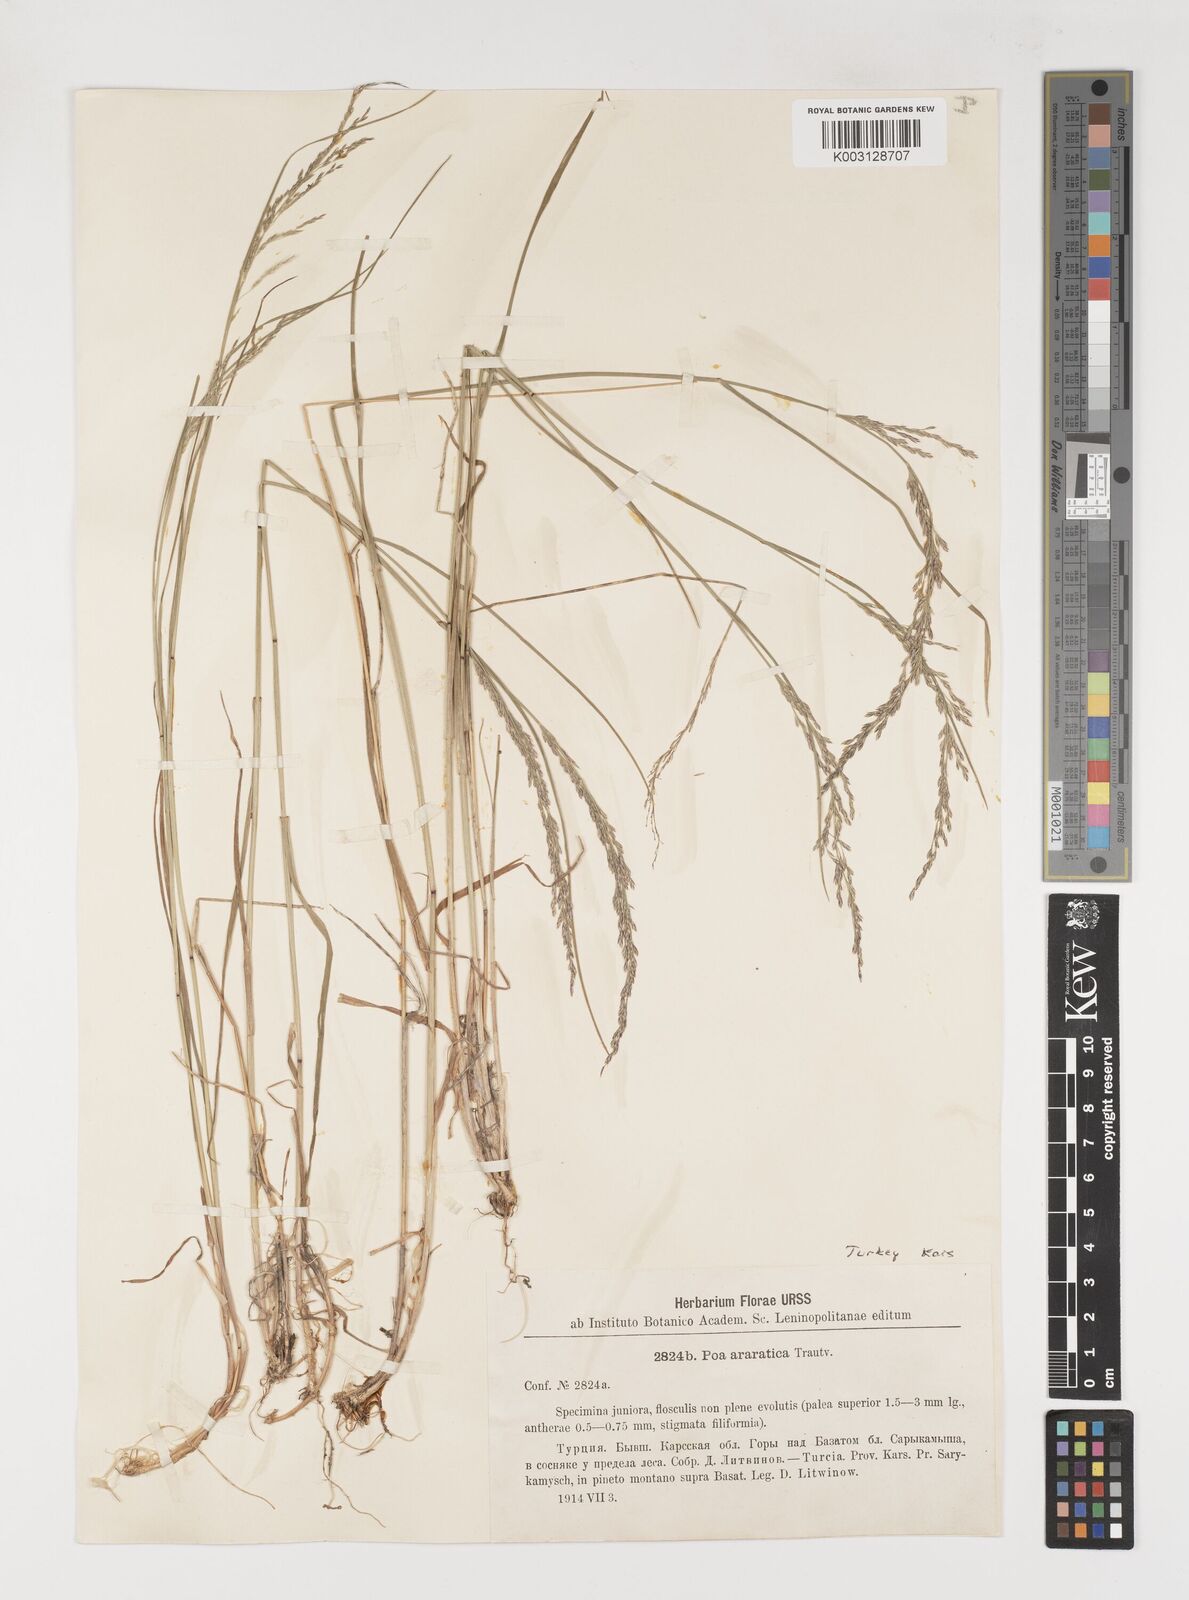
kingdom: Plantae
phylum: Tracheophyta
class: Liliopsida
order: Poales
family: Poaceae
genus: Poa
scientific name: Poa araratica
